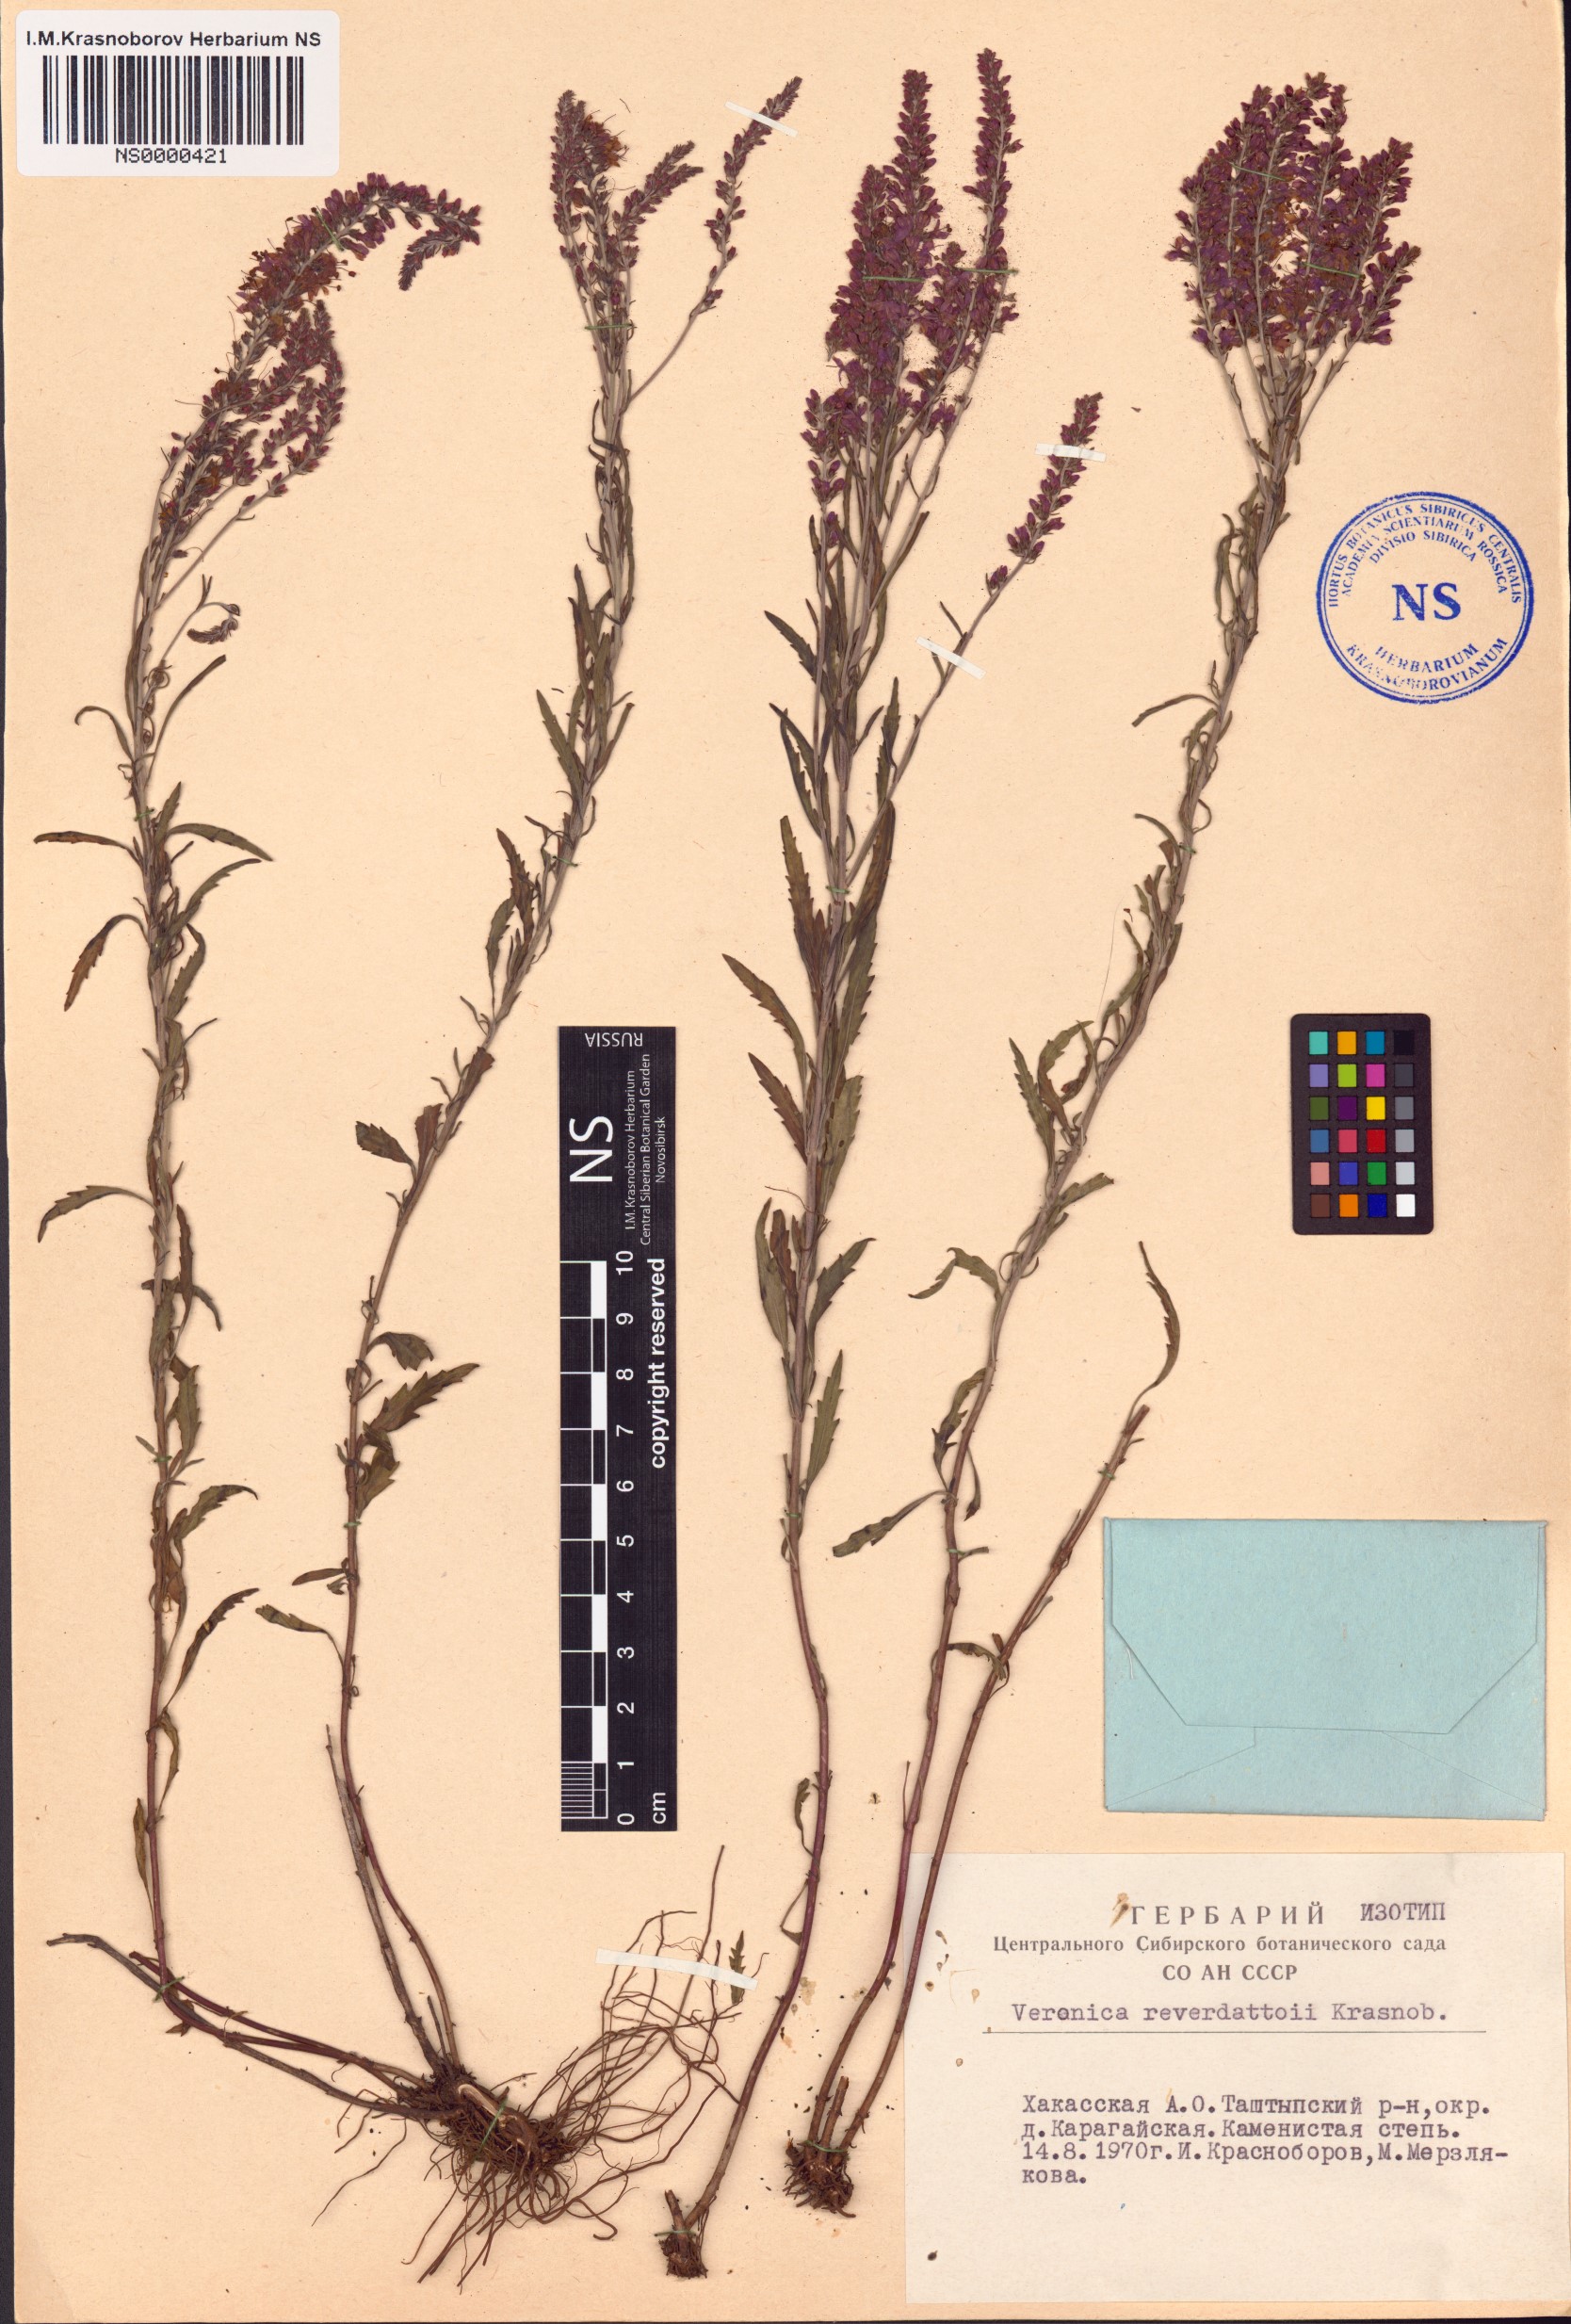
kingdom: Plantae
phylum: Tracheophyta
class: Magnoliopsida
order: Lamiales
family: Plantaginaceae
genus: Veronica
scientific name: Veronica reverdattoi
